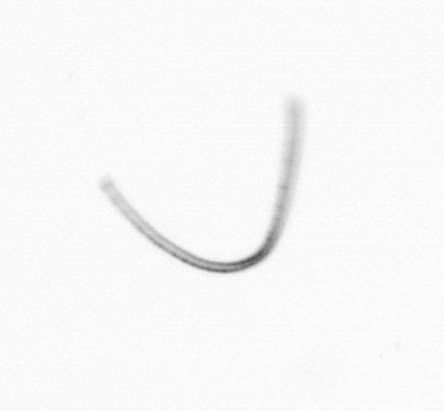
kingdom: Chromista
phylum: Ochrophyta
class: Bacillariophyceae
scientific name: Bacillariophyceae
